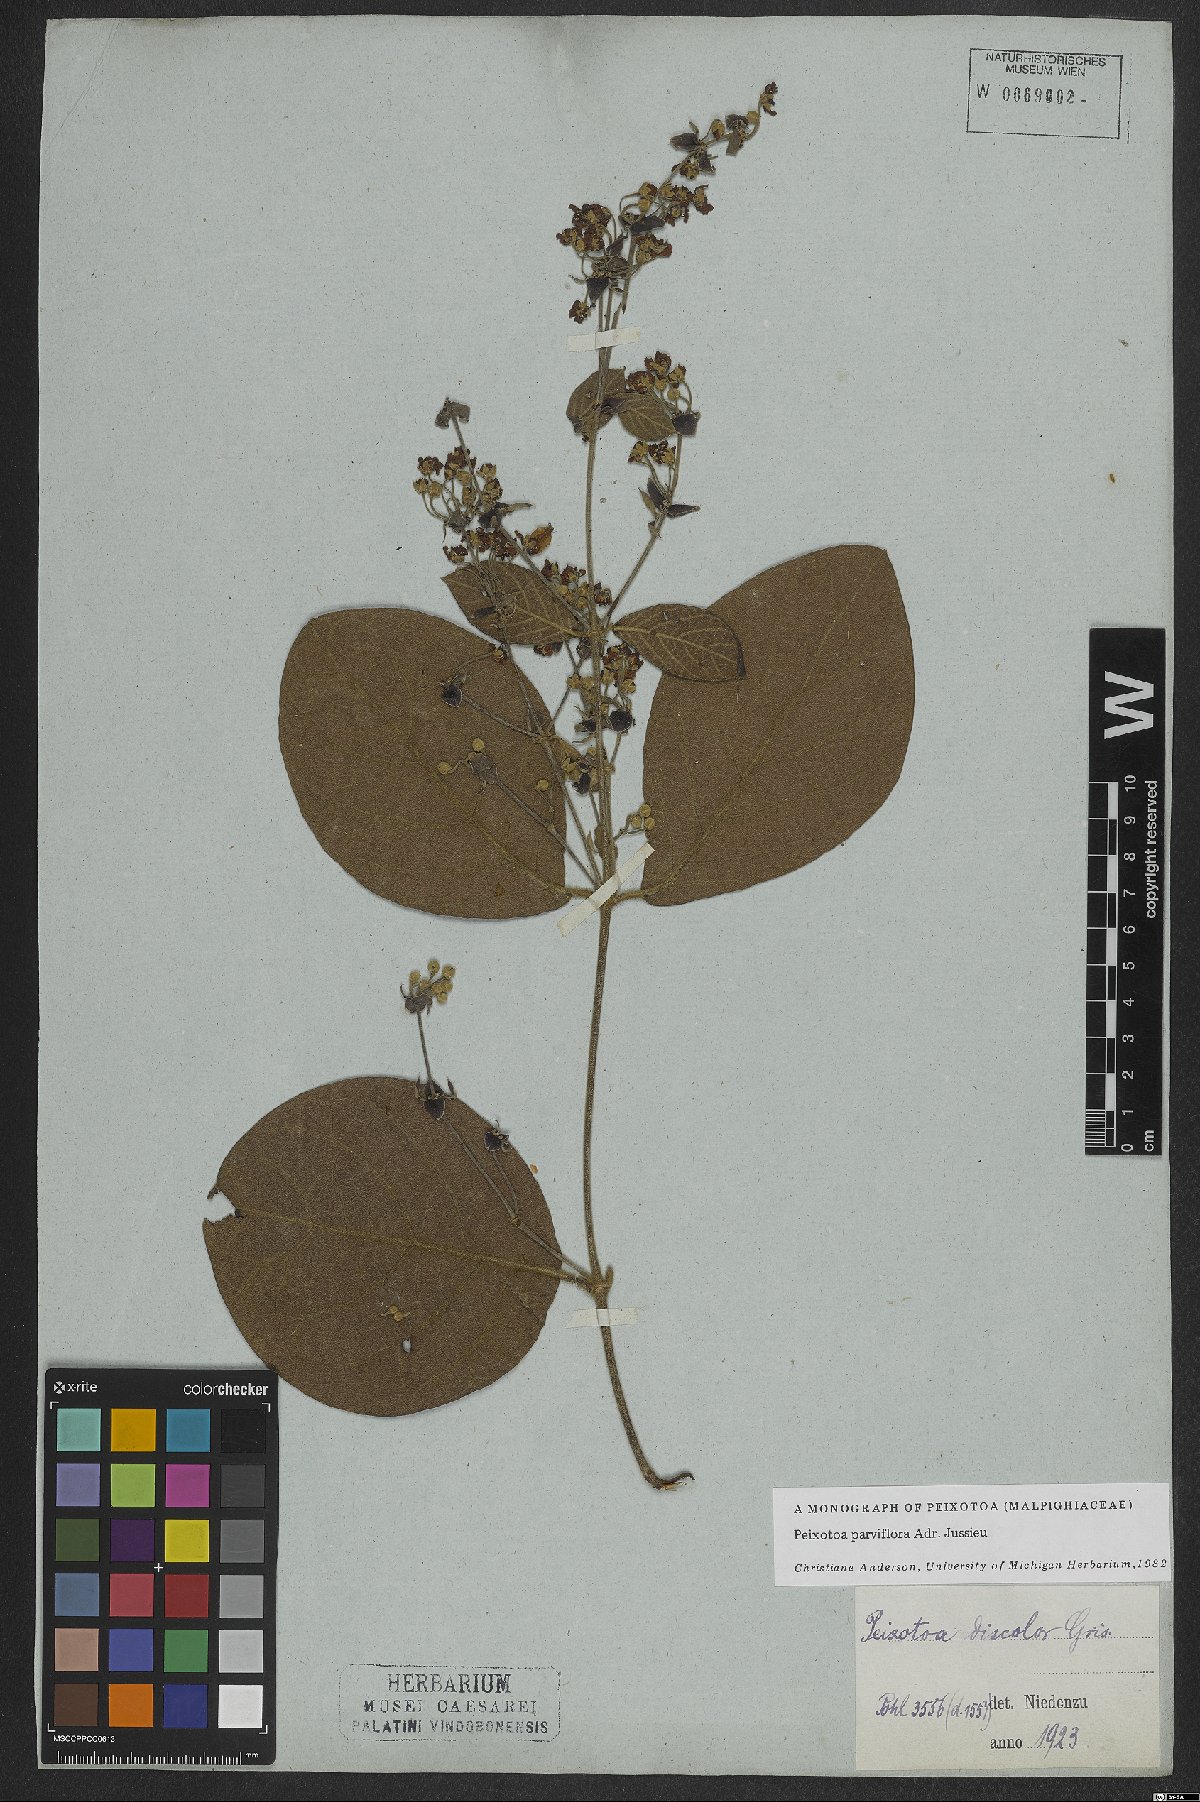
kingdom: Plantae
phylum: Tracheophyta
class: Magnoliopsida
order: Malpighiales
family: Malpighiaceae
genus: Peixotoa
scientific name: Peixotoa parviflora
